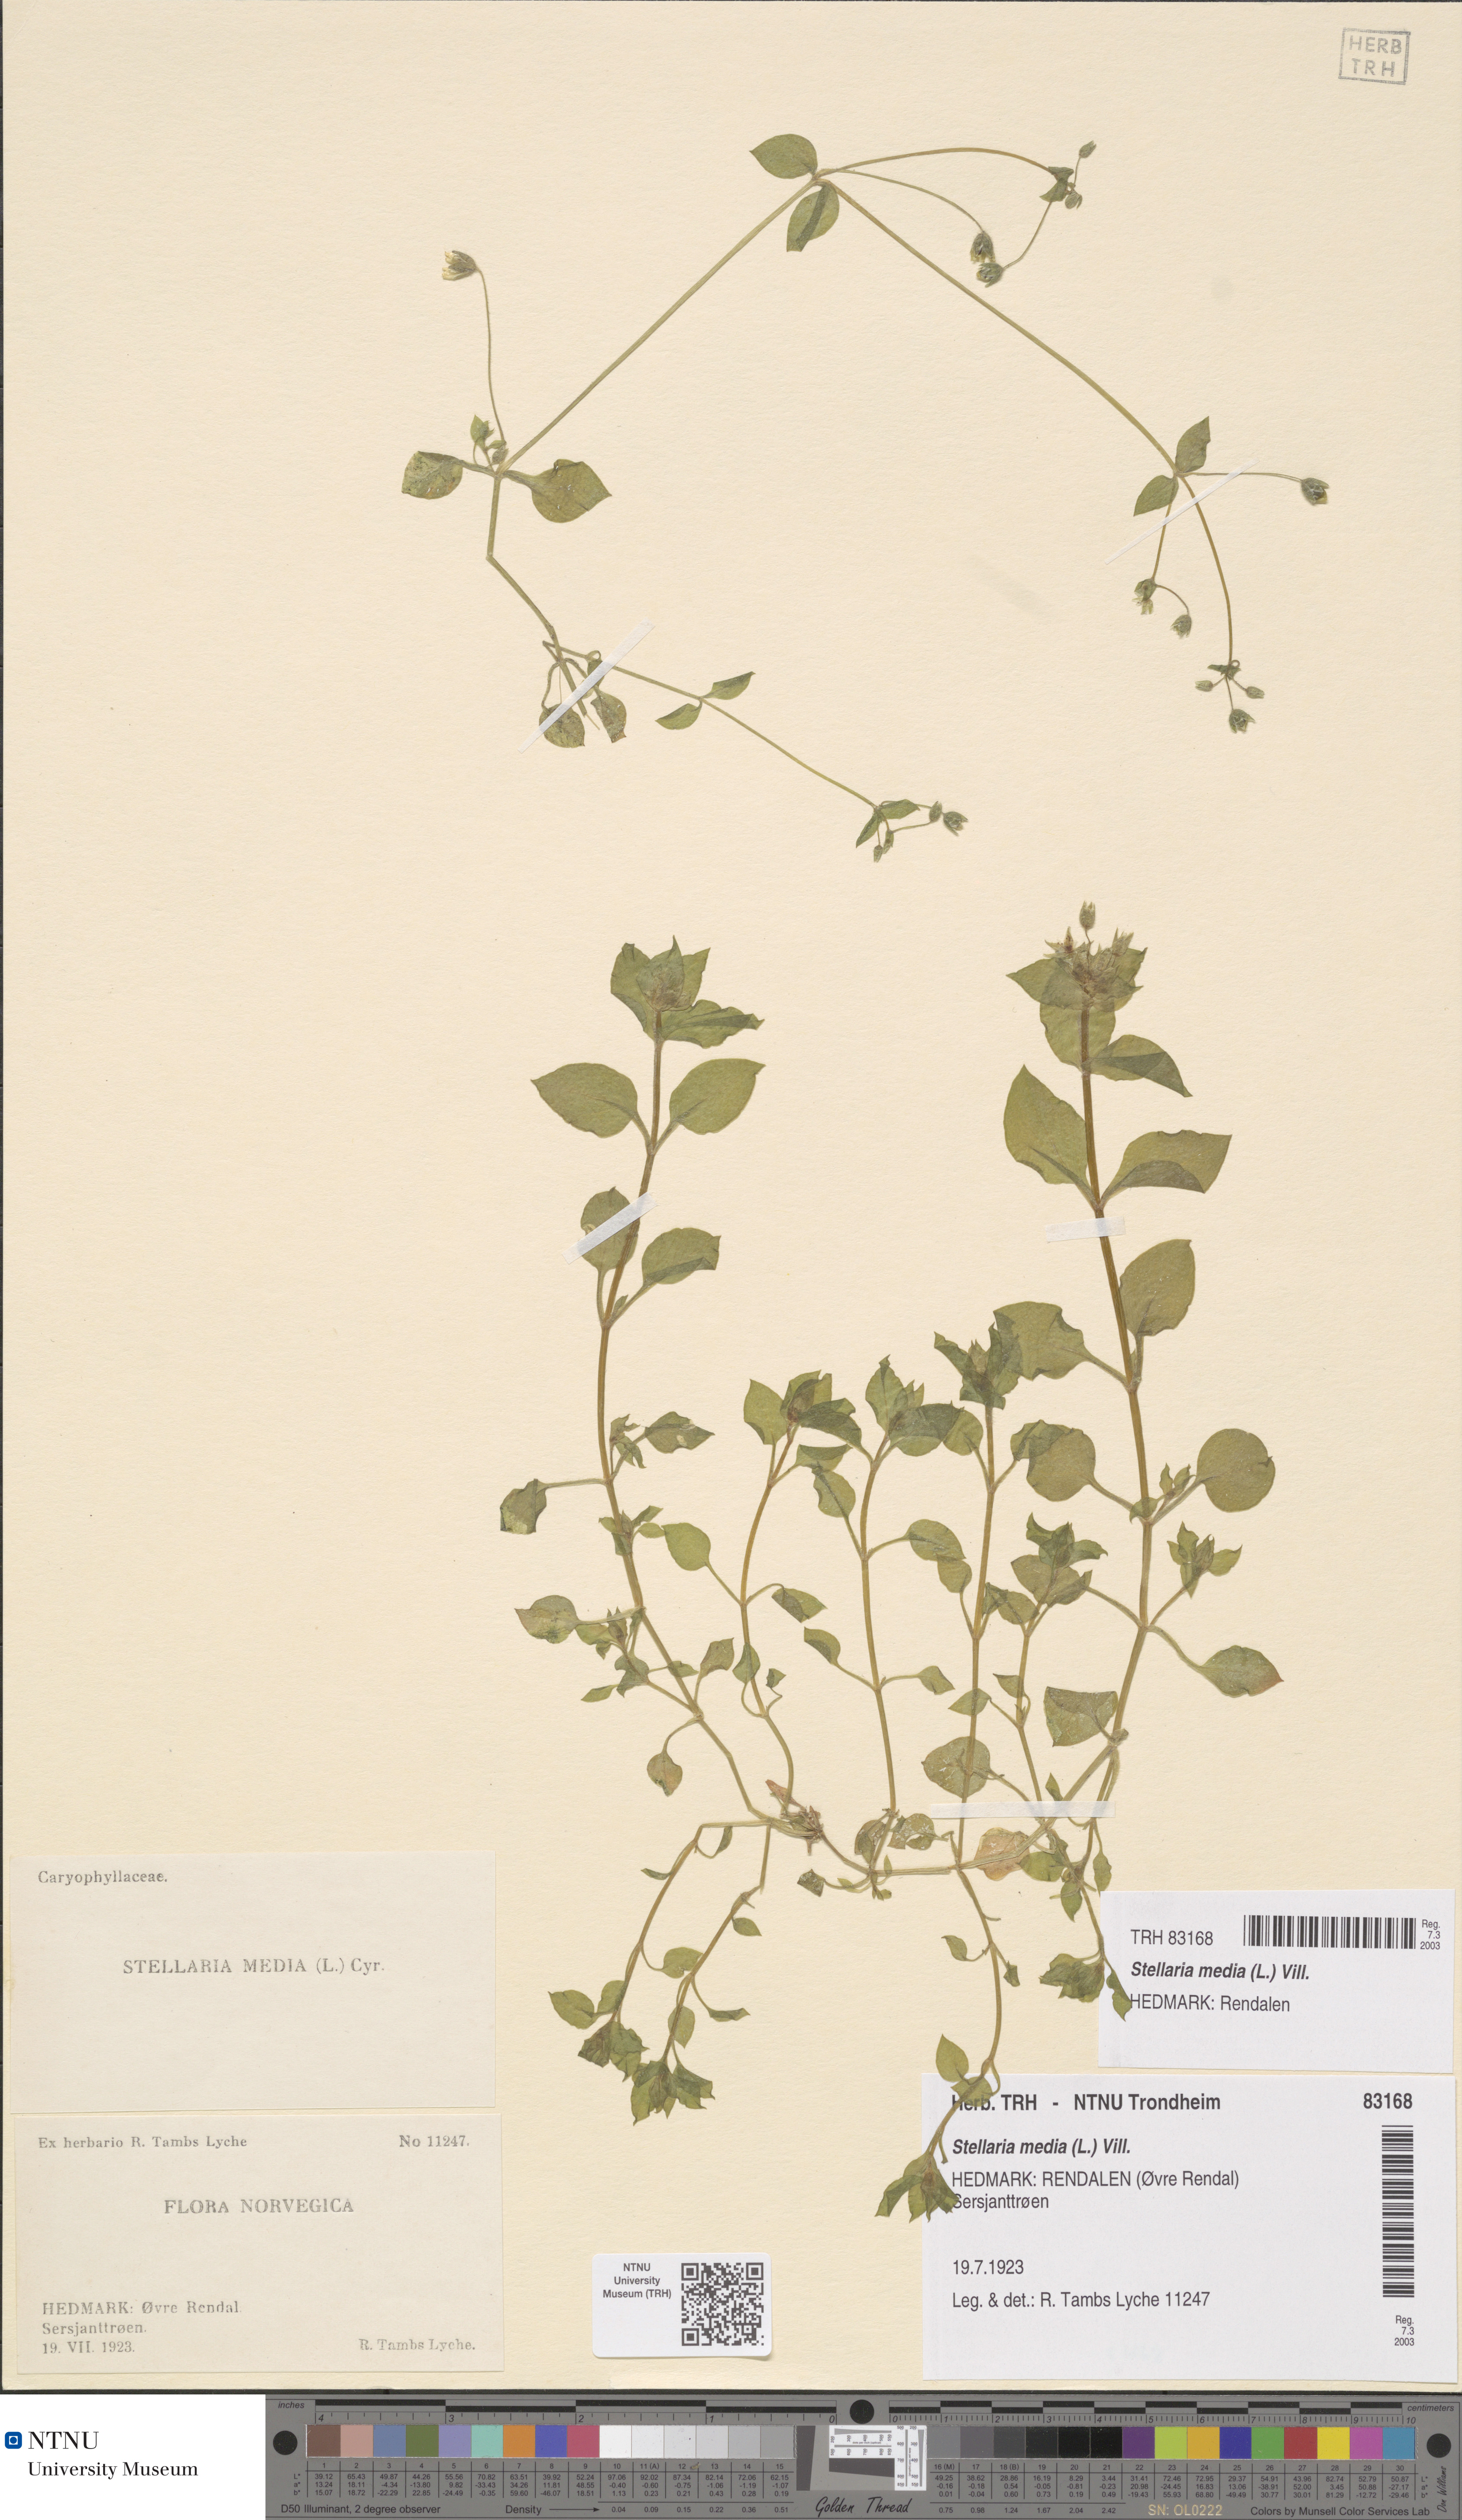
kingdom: Plantae
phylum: Tracheophyta
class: Magnoliopsida
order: Caryophyllales
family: Caryophyllaceae
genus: Stellaria
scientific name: Stellaria media
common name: Common chickweed
